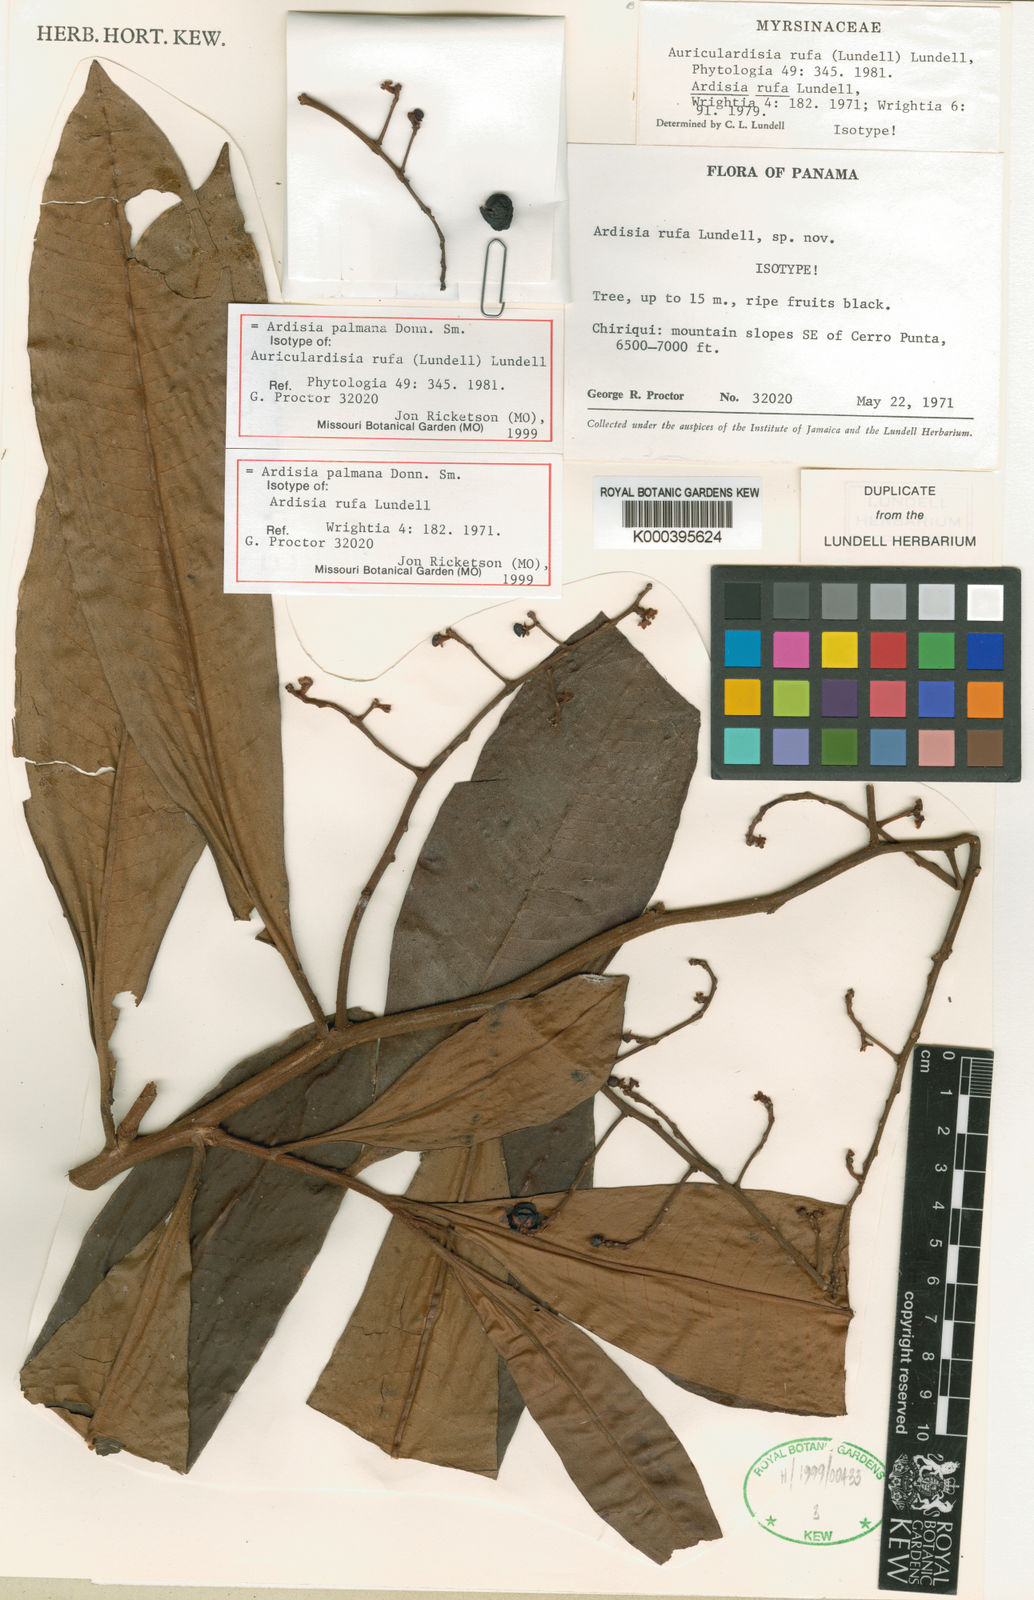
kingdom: Plantae
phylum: Tracheophyta
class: Magnoliopsida
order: Ericales
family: Primulaceae
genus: Ardisia
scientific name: Ardisia palmana
